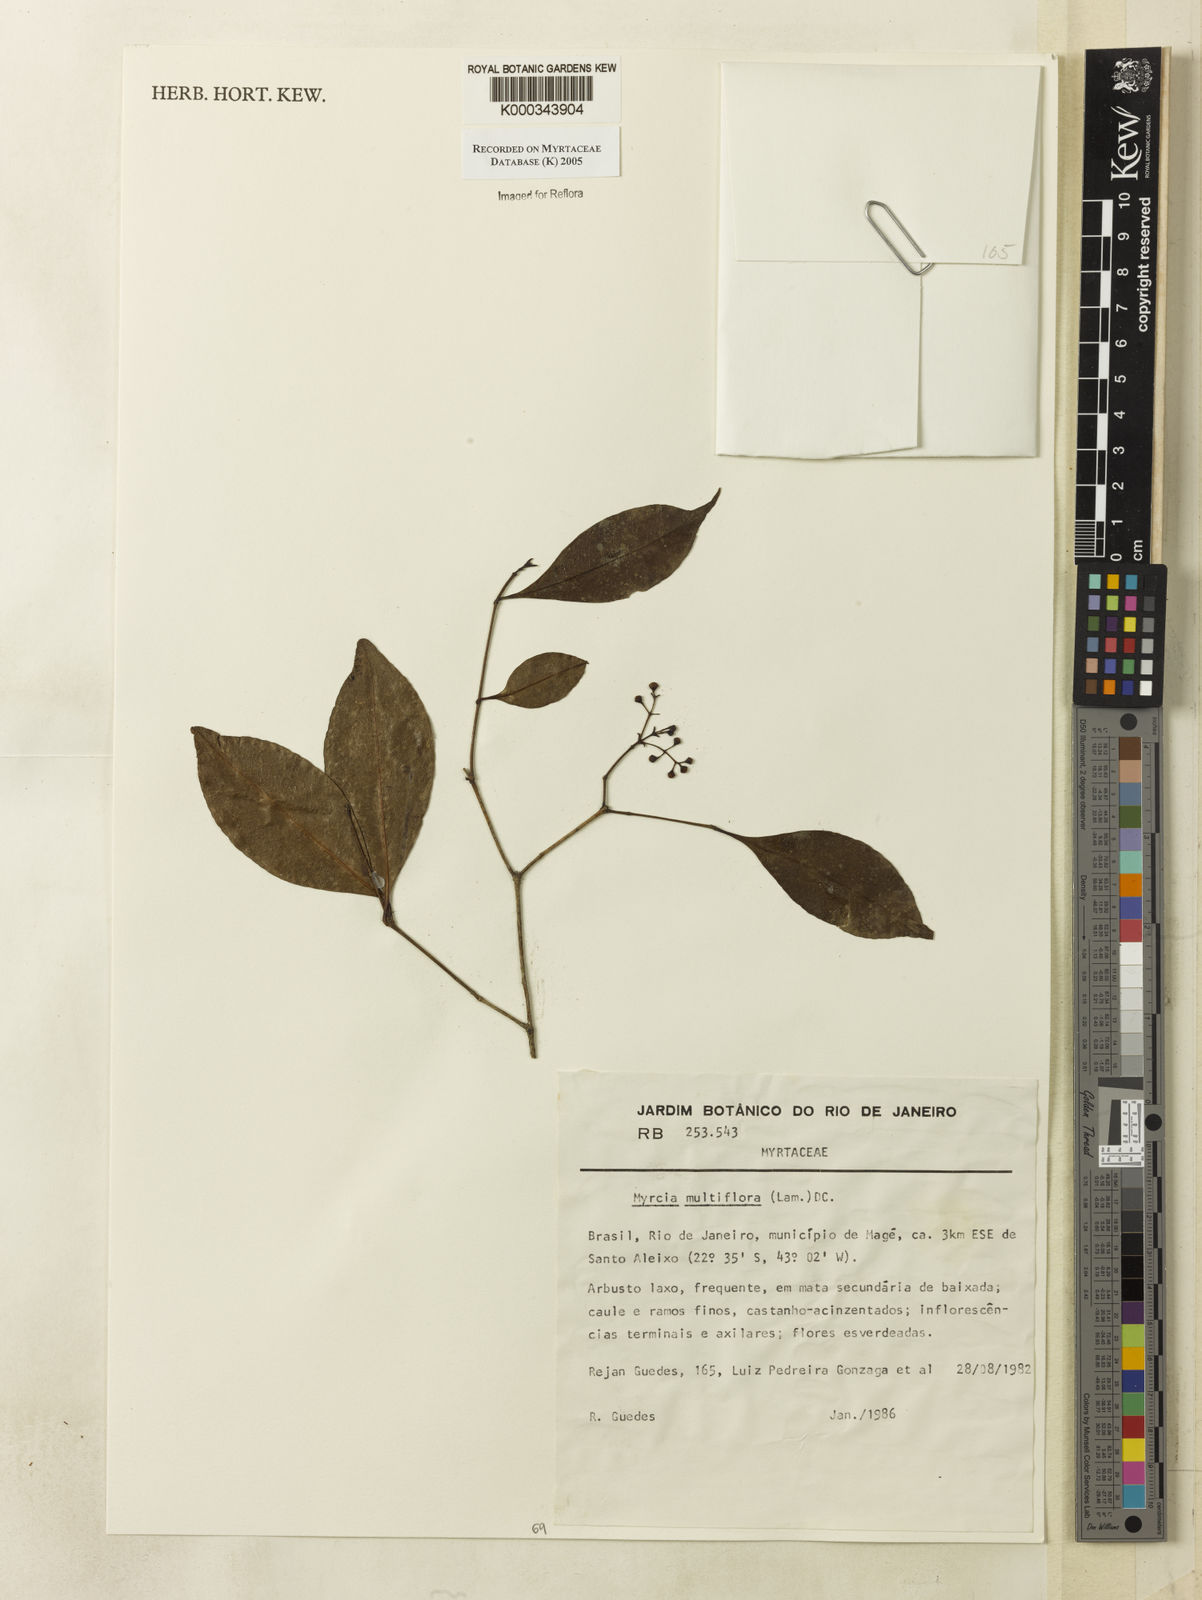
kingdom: Plantae
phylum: Tracheophyta
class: Magnoliopsida
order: Myrtales
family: Myrtaceae
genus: Myrcia
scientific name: Myrcia multiflora
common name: Pedra hume
